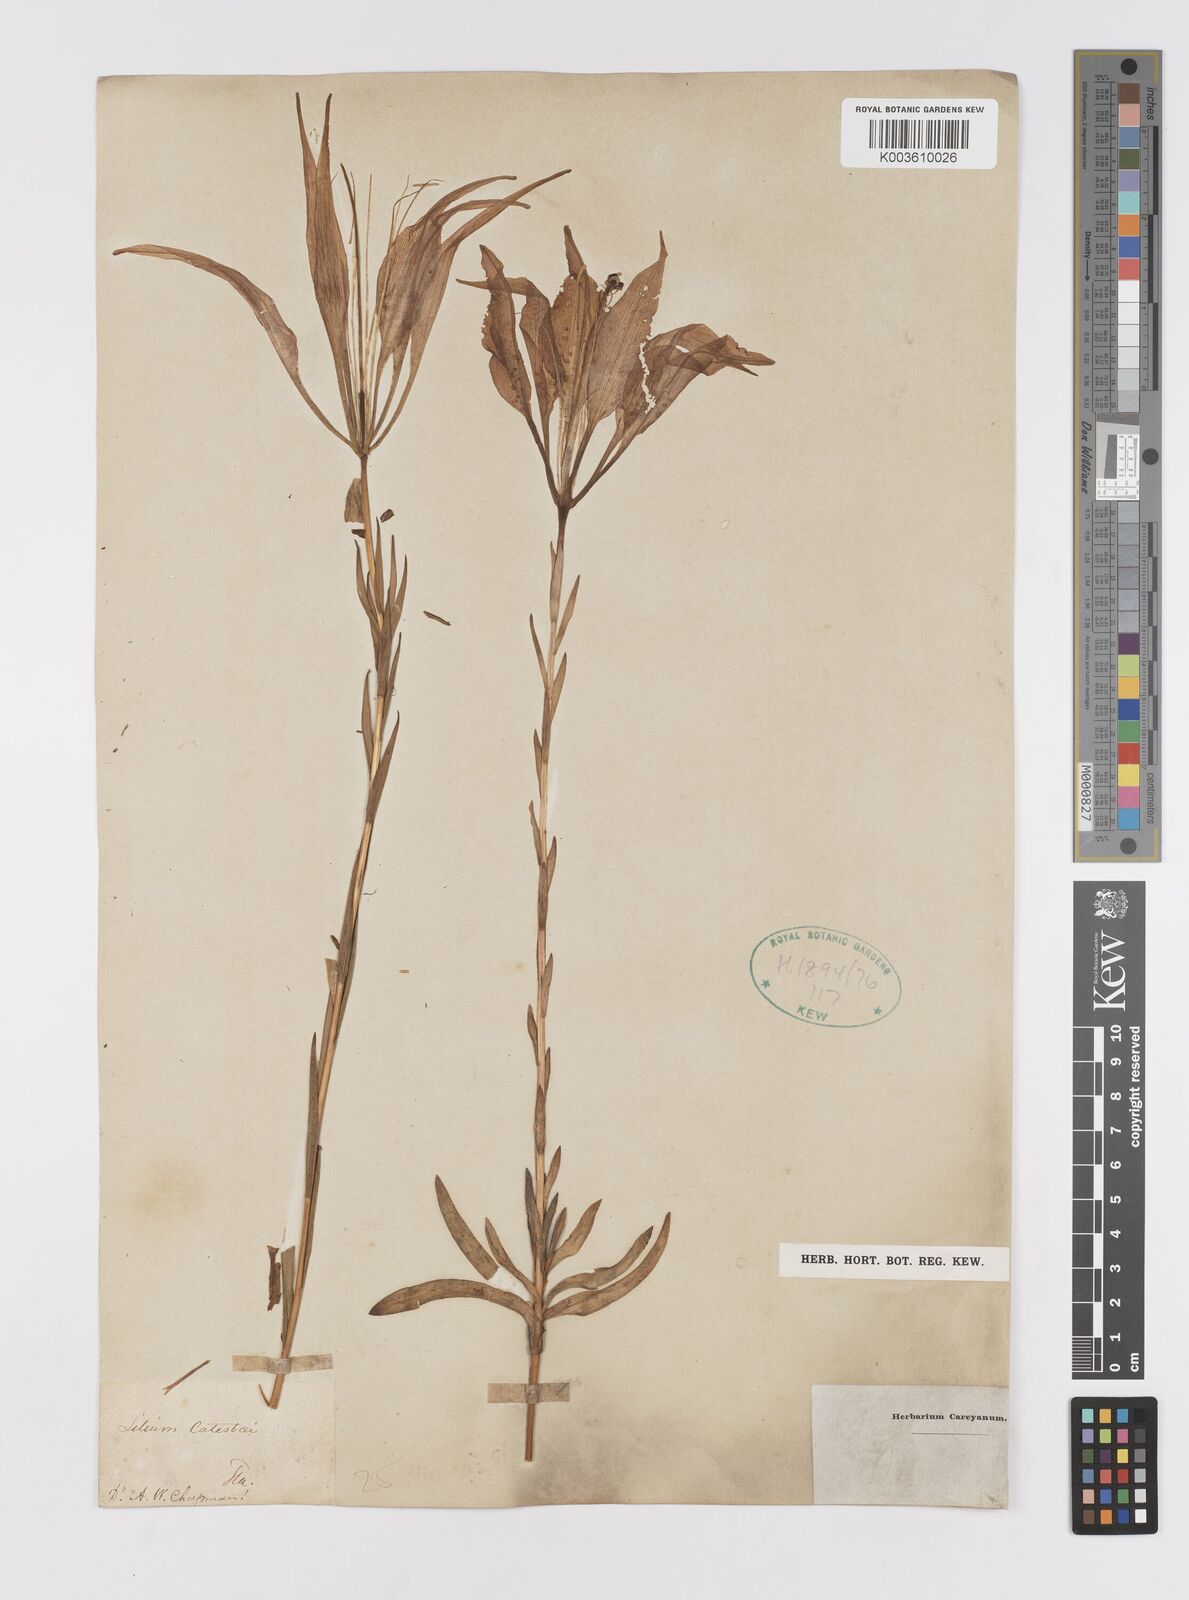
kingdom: Plantae
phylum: Tracheophyta
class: Liliopsida
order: Liliales
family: Liliaceae
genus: Lilium
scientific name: Lilium catesbaei
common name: Catesby's lily
